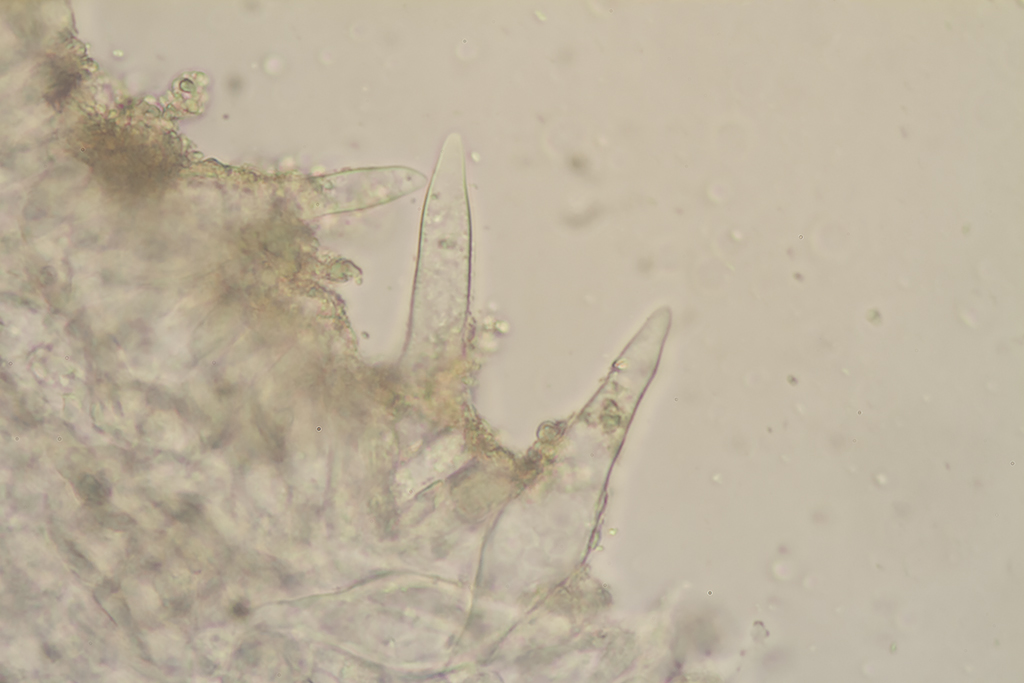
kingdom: Fungi
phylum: Basidiomycota
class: Agaricomycetes
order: Agaricales
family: Tricholomataceae
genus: Mycenella
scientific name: Mycenella trachyspora
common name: rødprikket dughat
